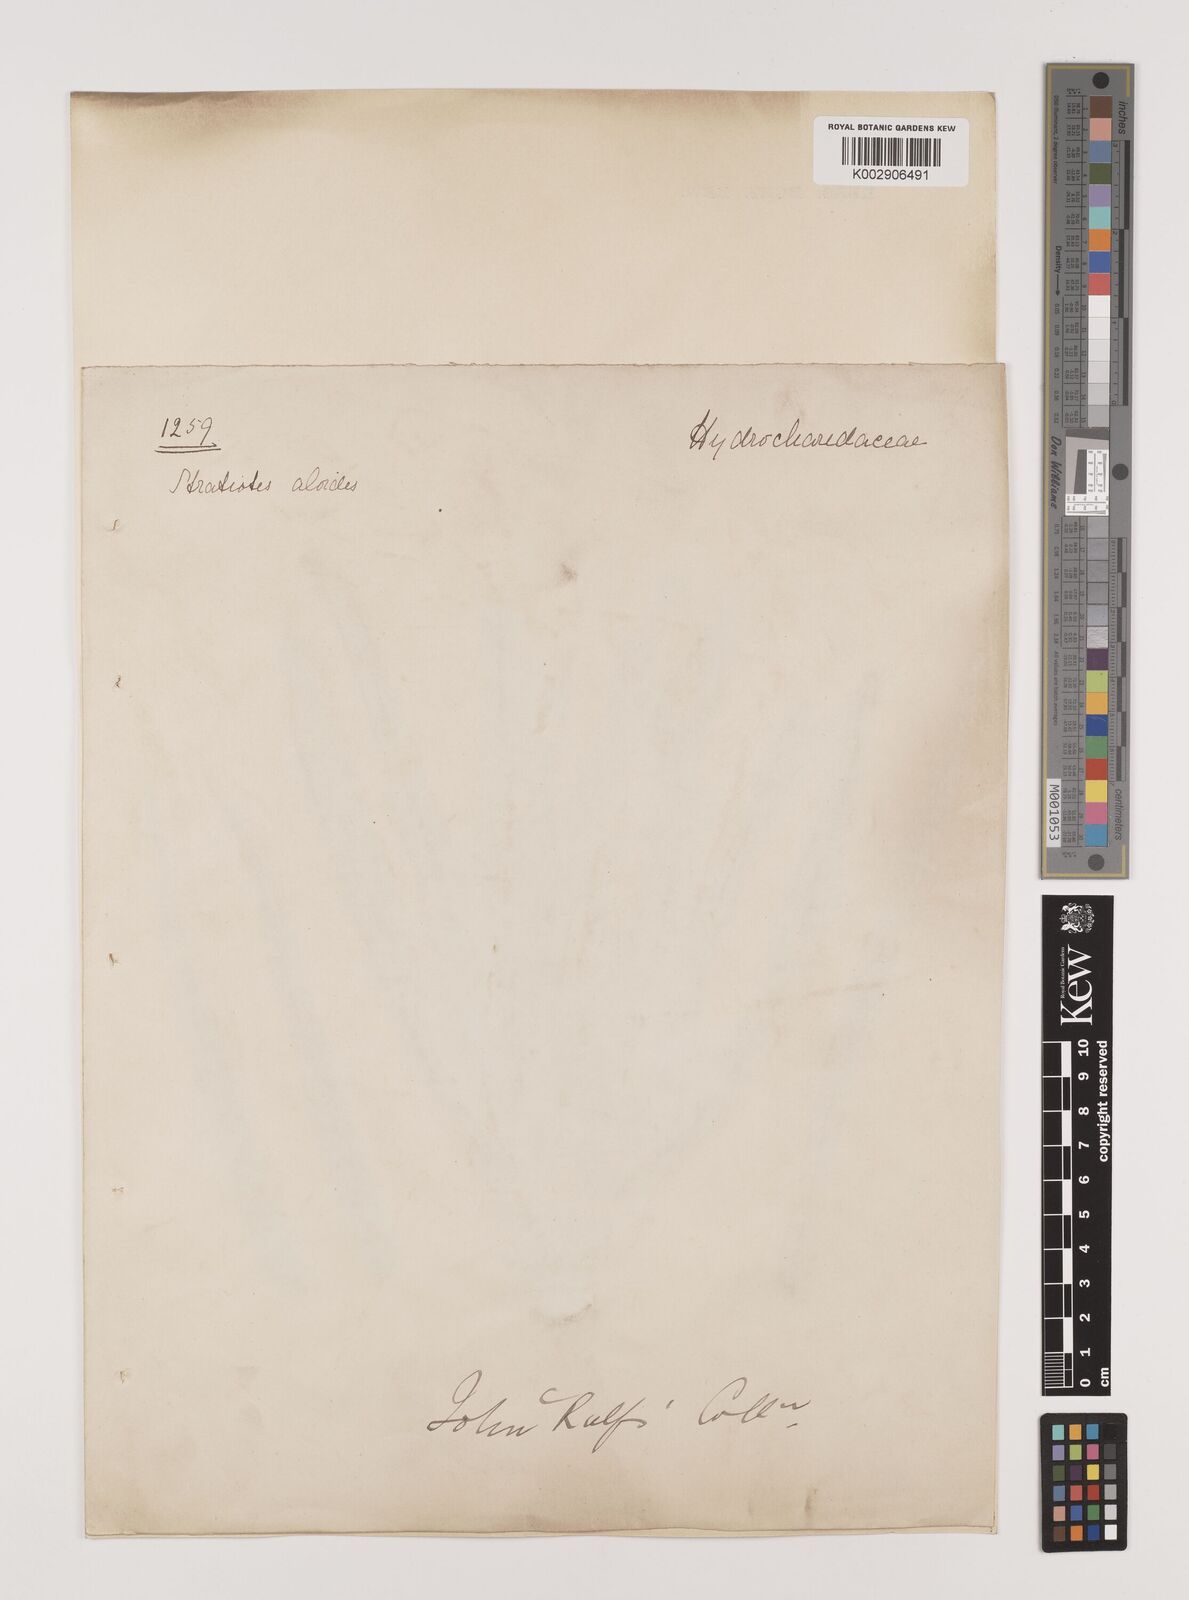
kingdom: Plantae
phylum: Tracheophyta
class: Liliopsida
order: Alismatales
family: Hydrocharitaceae
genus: Stratiotes
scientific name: Stratiotes aloides
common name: Water-soldier
